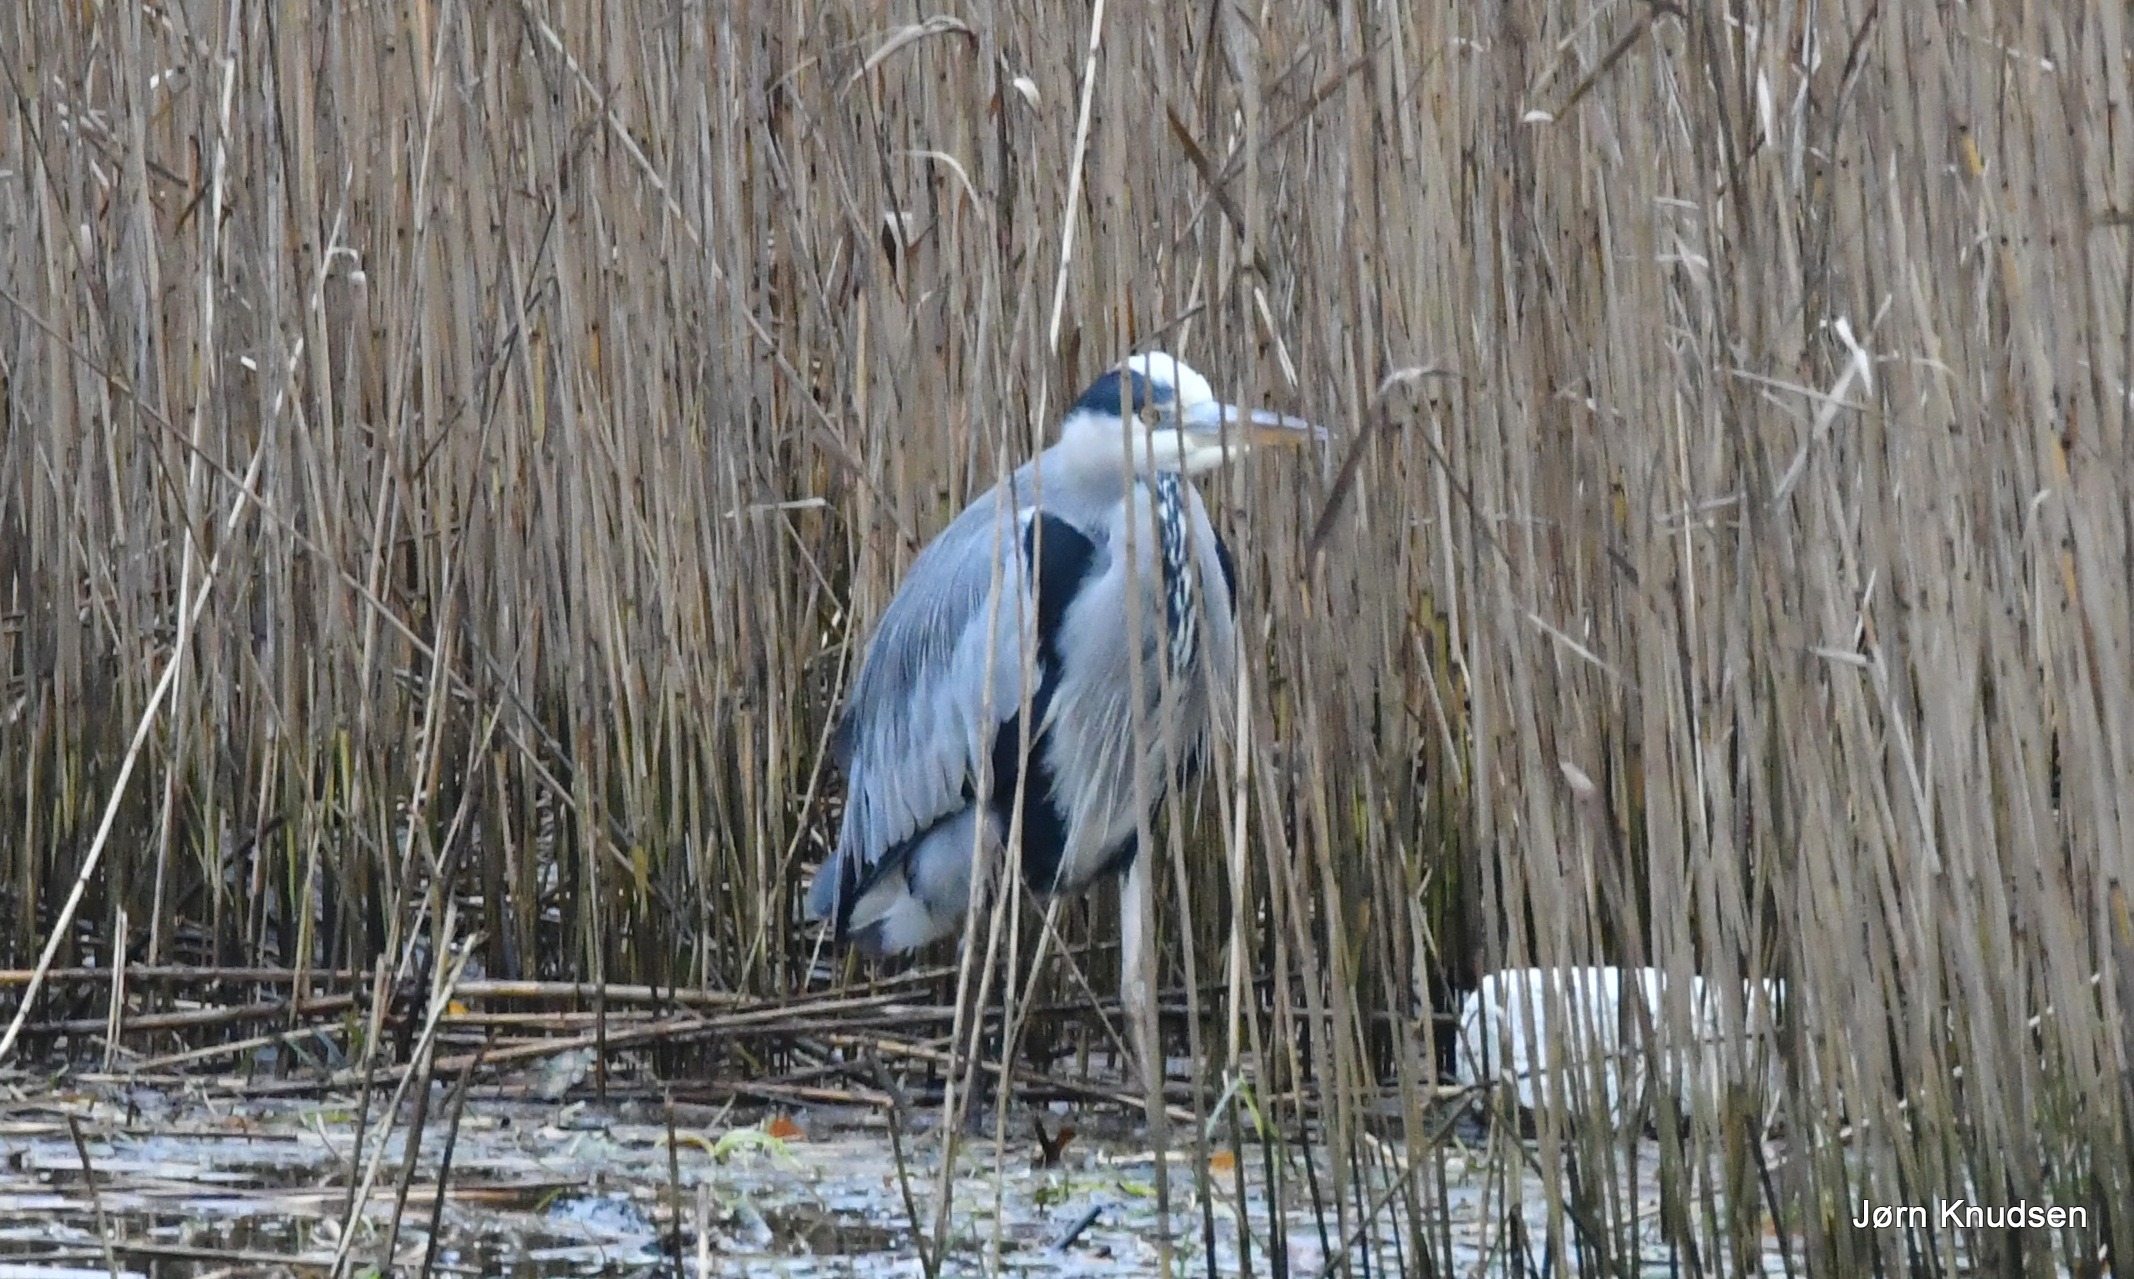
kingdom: Animalia
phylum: Chordata
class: Aves
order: Pelecaniformes
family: Ardeidae
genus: Ardea
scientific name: Ardea cinerea
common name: Fiskehejre
